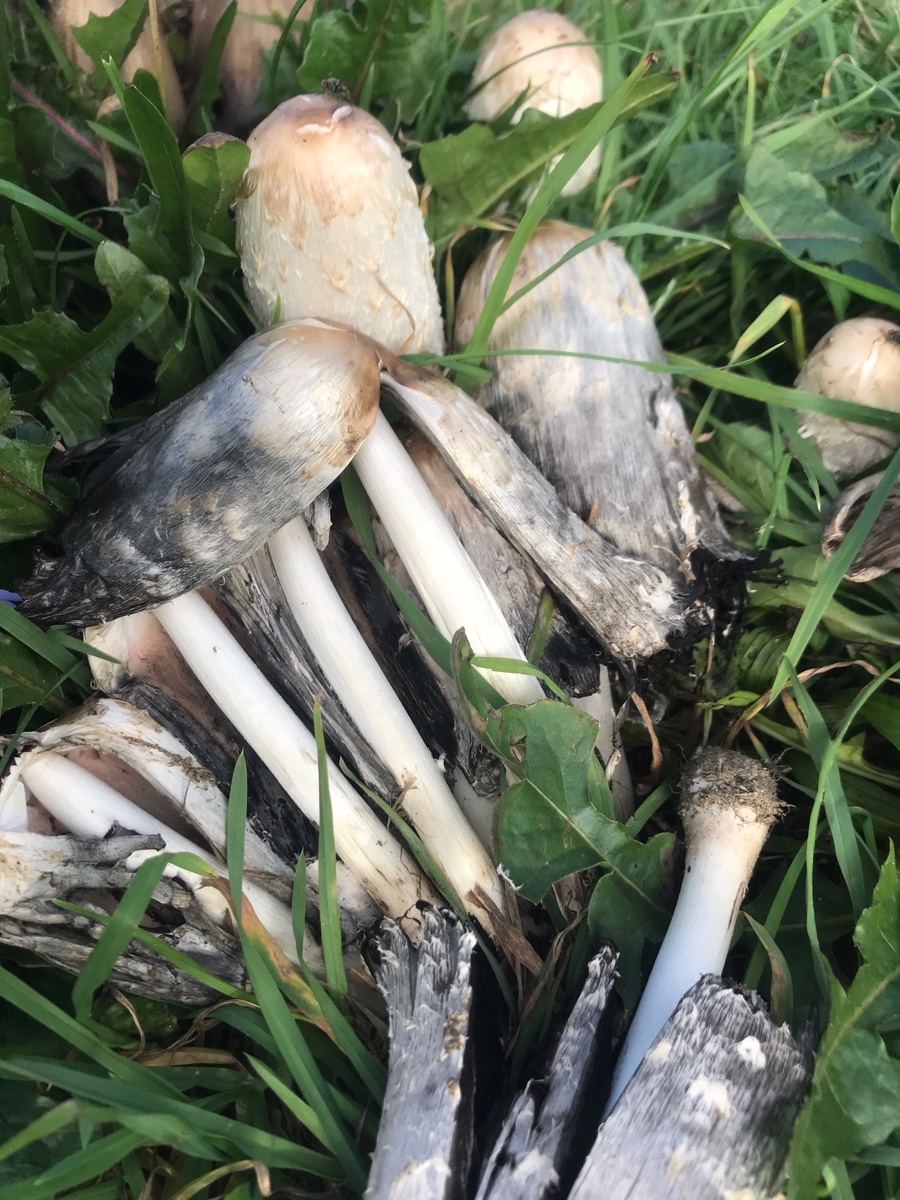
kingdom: Fungi
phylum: Basidiomycota
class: Agaricomycetes
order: Agaricales
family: Agaricaceae
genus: Coprinus
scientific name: Coprinus comatus
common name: stor parykhat
